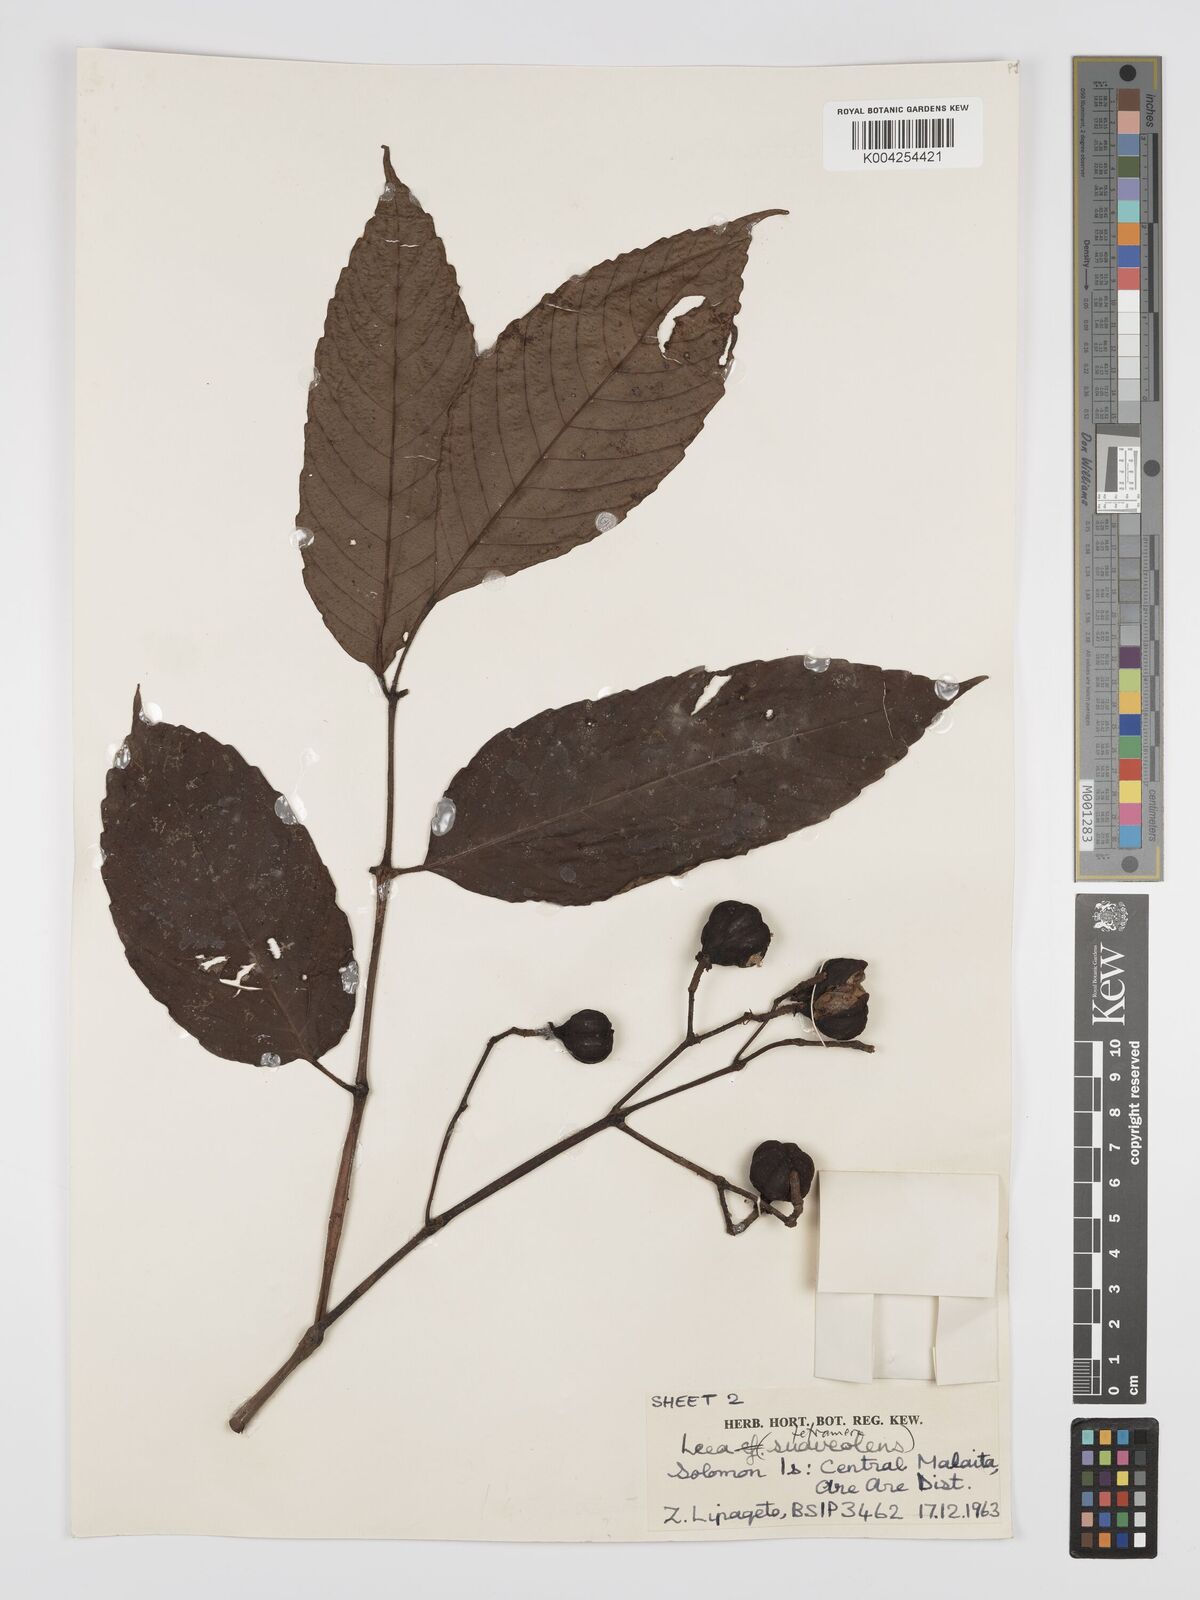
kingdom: Plantae
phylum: Tracheophyta
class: Magnoliopsida
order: Vitales
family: Vitaceae
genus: Leea
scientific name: Leea tetramera
